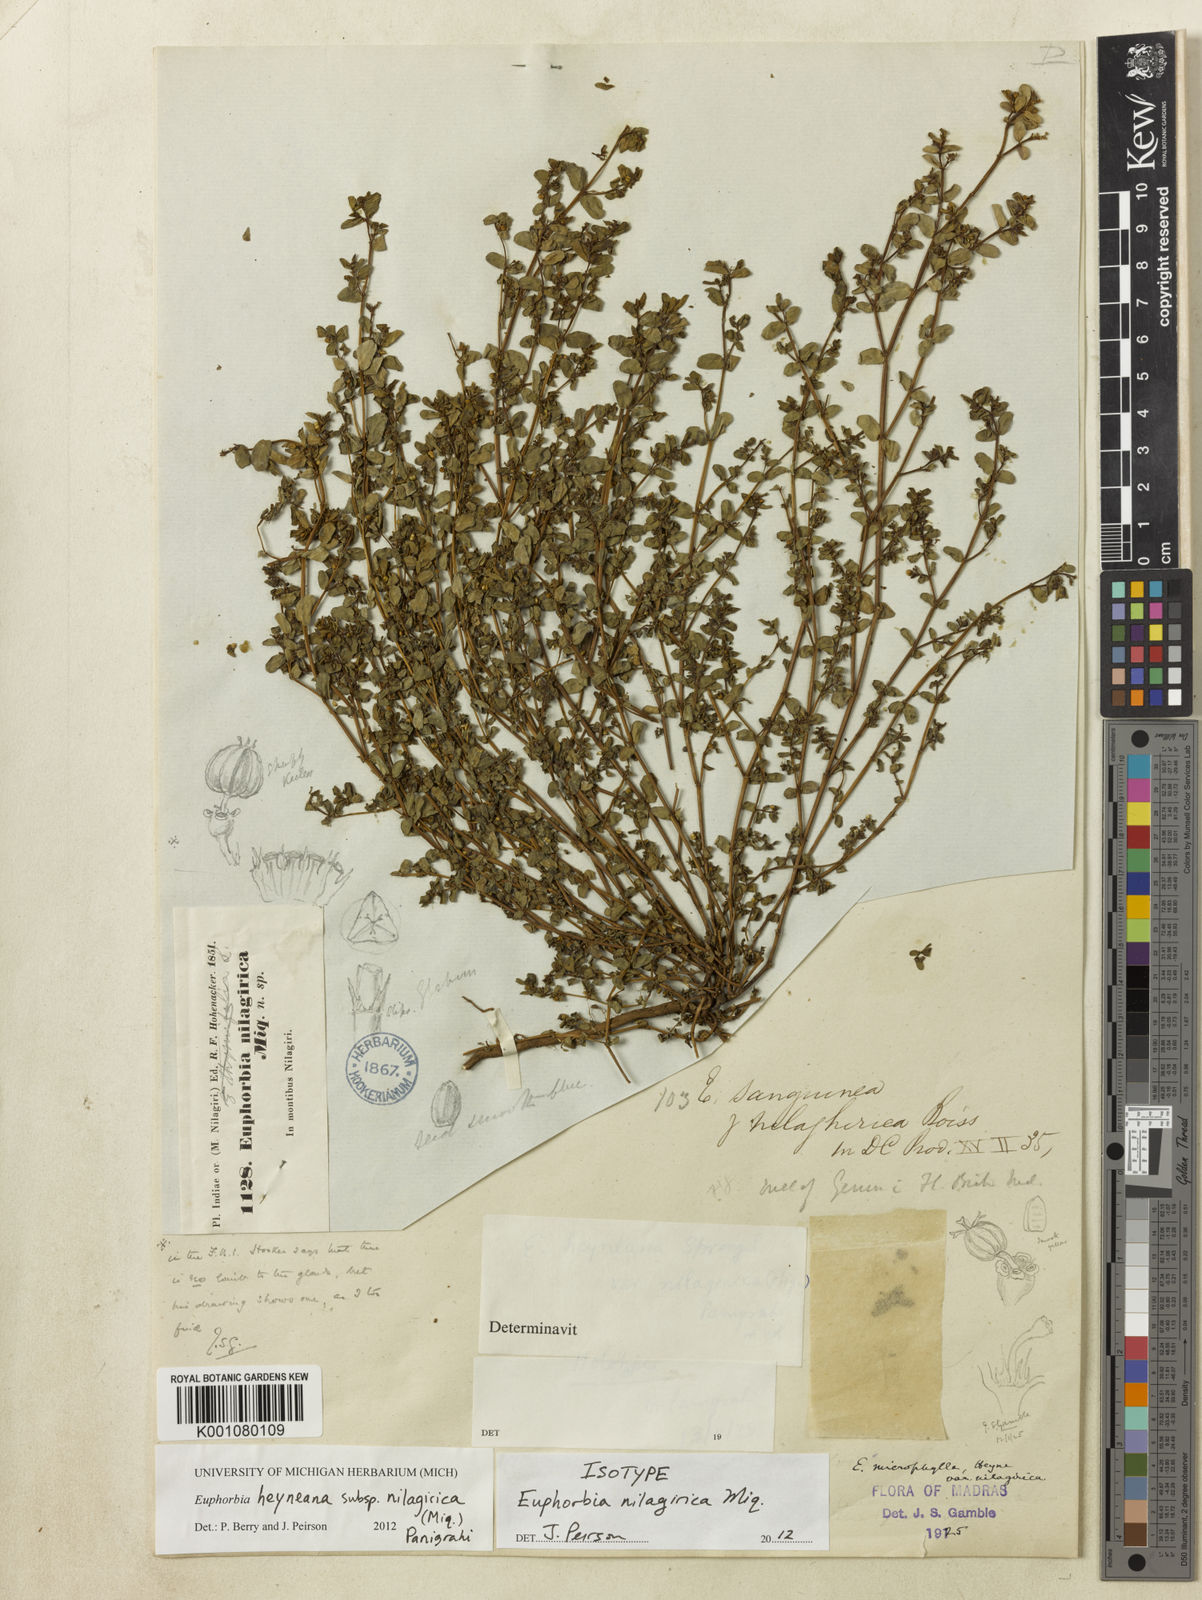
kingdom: Plantae
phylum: Tracheophyta
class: Magnoliopsida
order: Malpighiales
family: Euphorbiaceae
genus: Euphorbia
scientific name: Euphorbia
